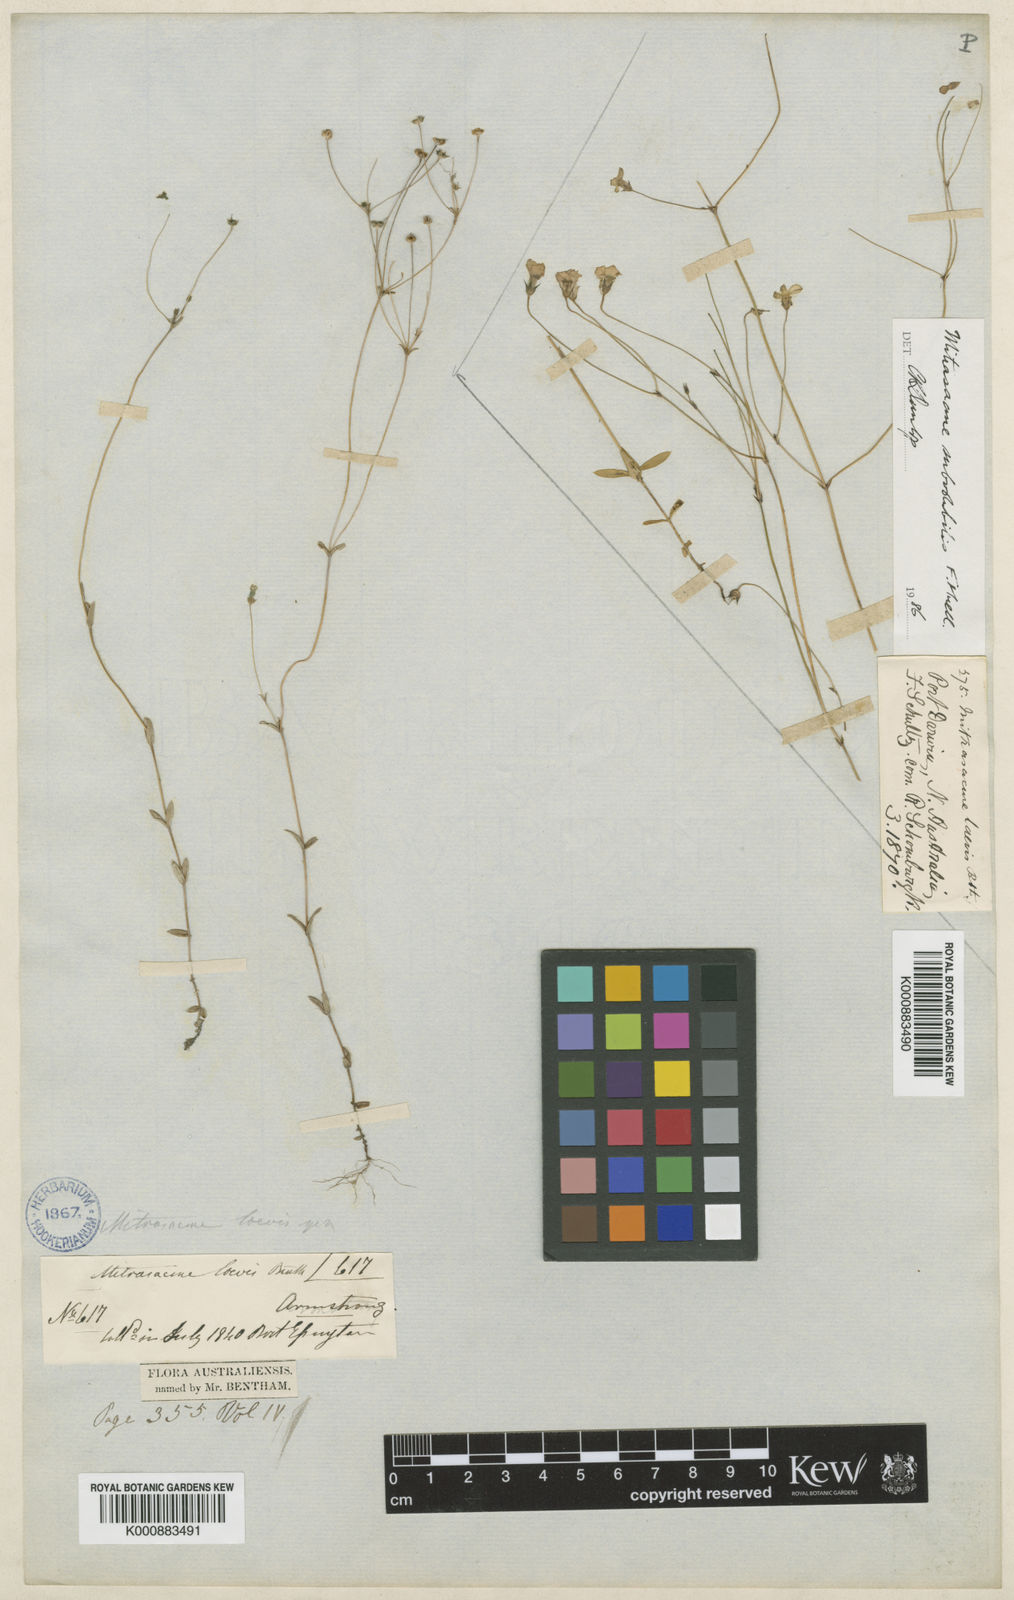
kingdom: Plantae
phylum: Tracheophyta
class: Magnoliopsida
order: Gentianales
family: Loganiaceae
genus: Mitrasacme
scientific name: Mitrasacme laevis
